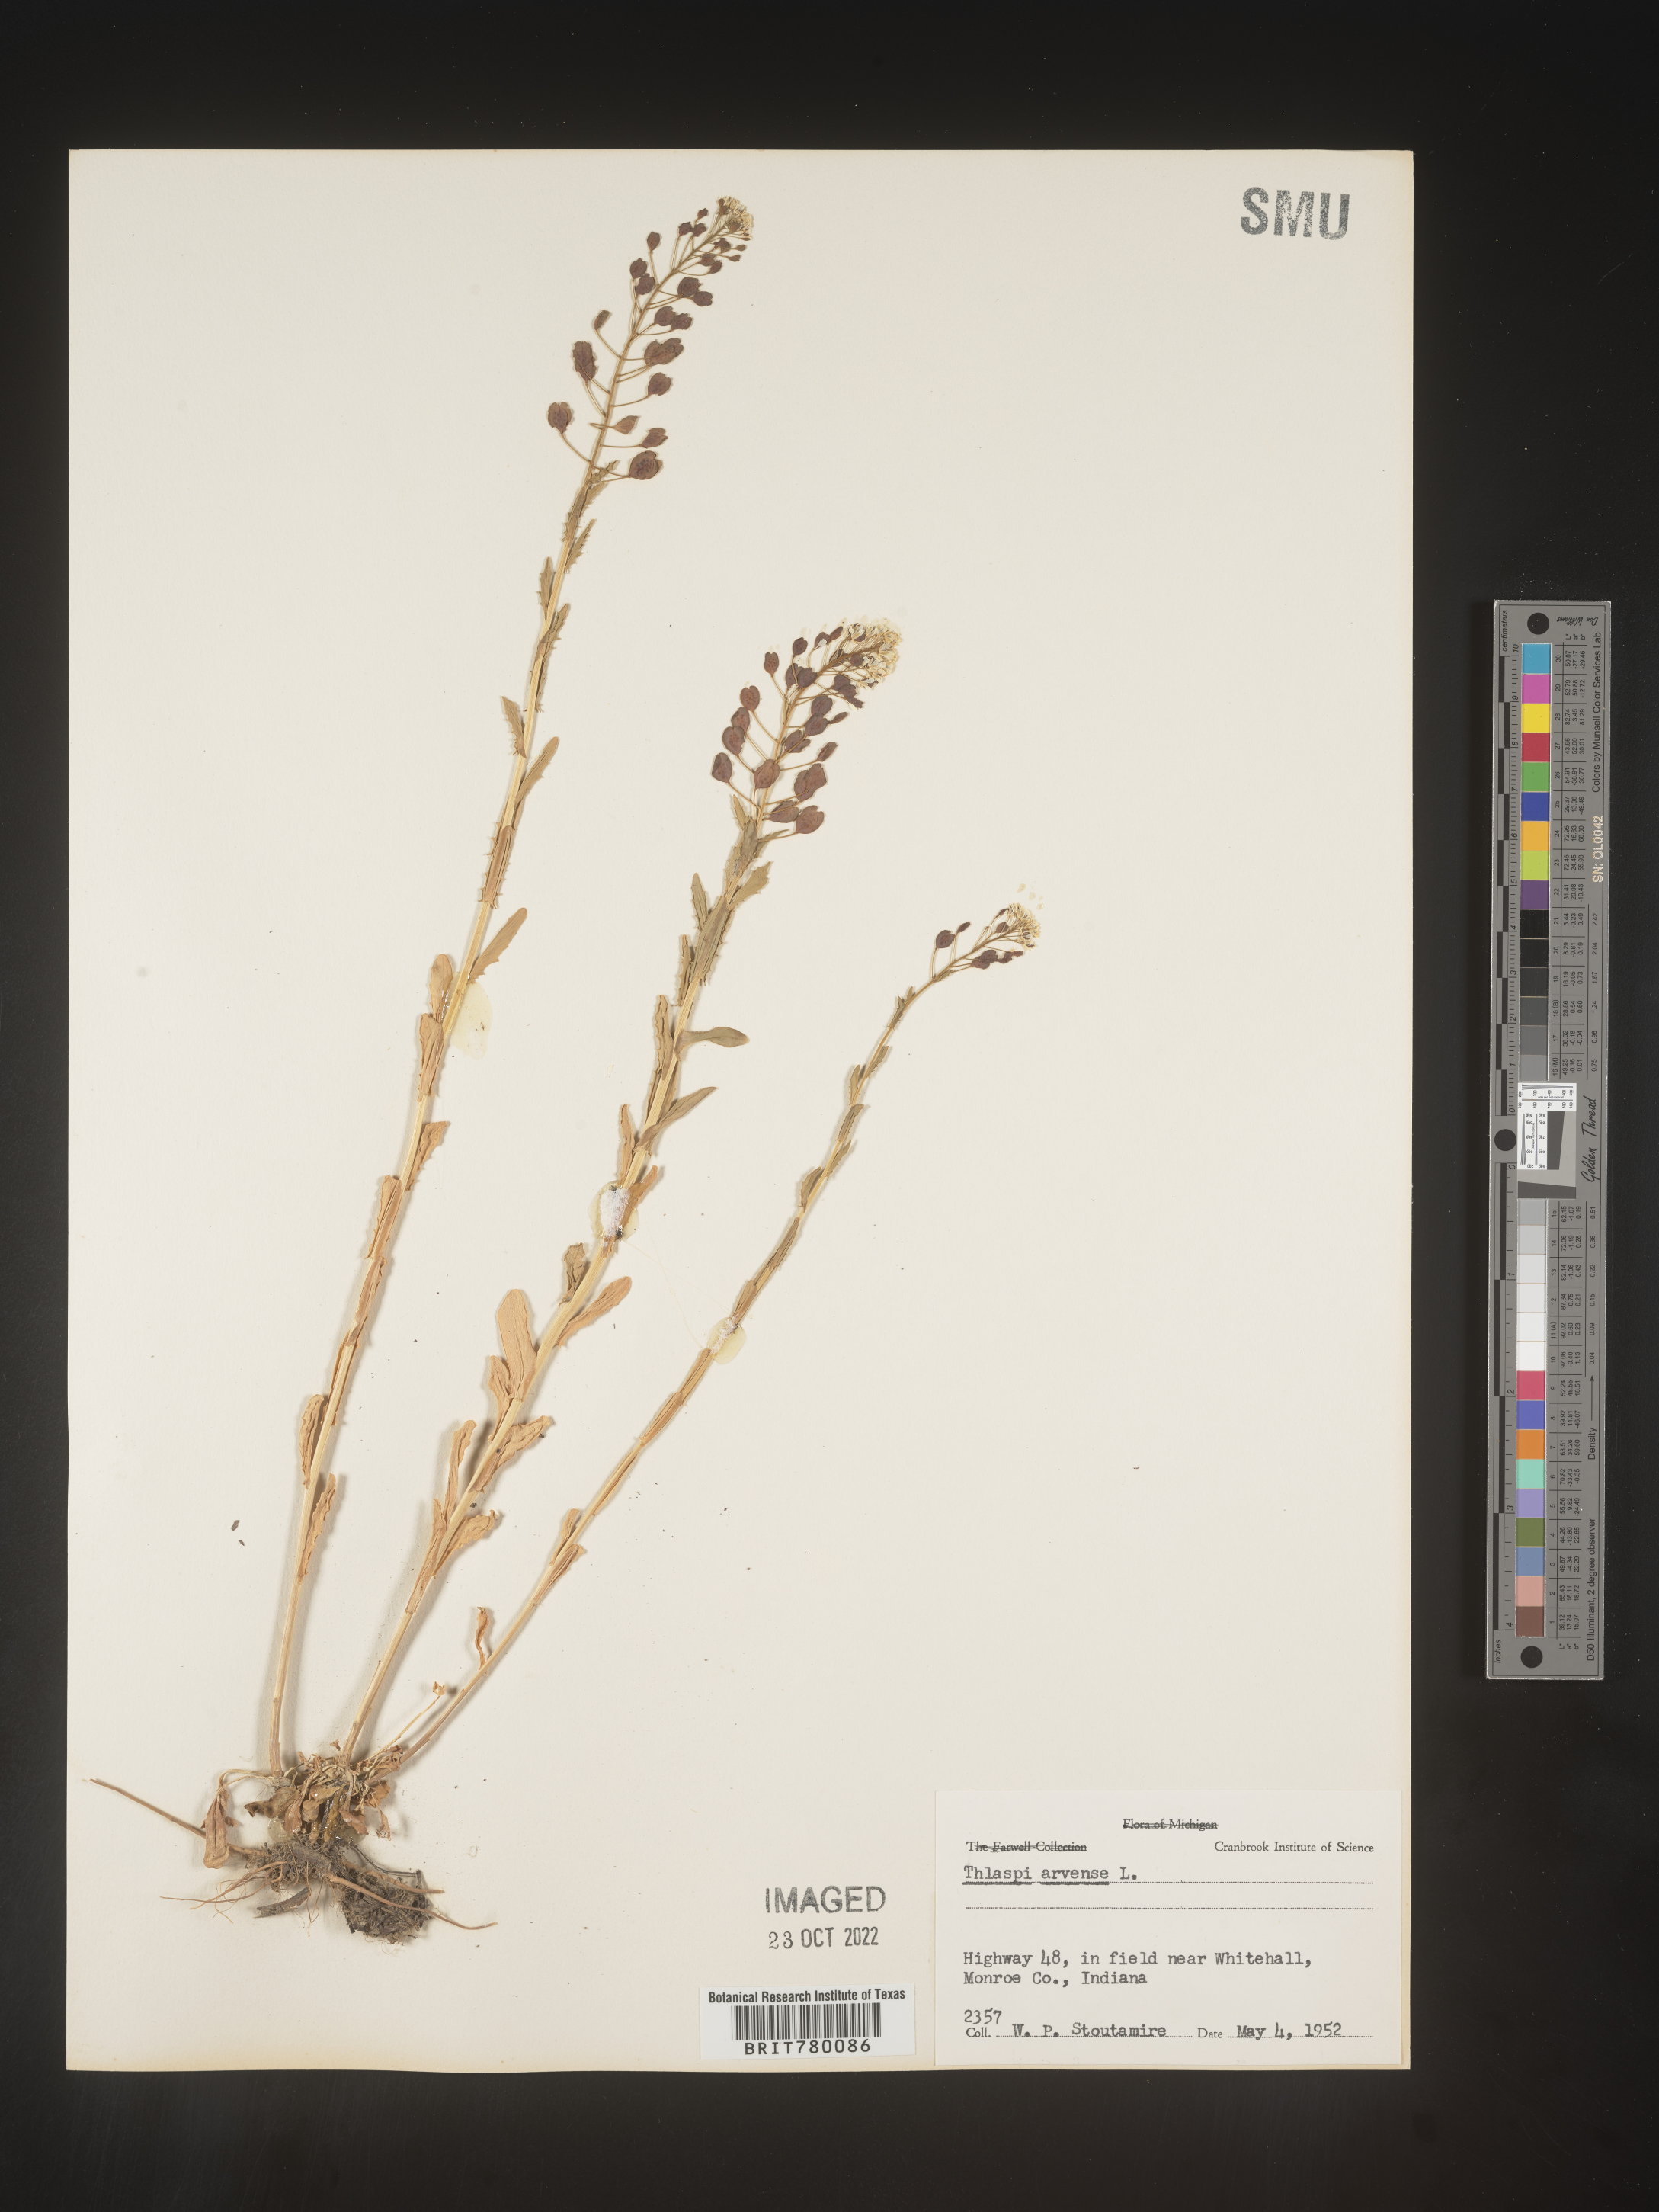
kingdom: Plantae
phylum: Tracheophyta
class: Magnoliopsida
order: Brassicales
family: Brassicaceae
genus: Thlaspi
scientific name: Thlaspi arvense
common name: Field pennycress
